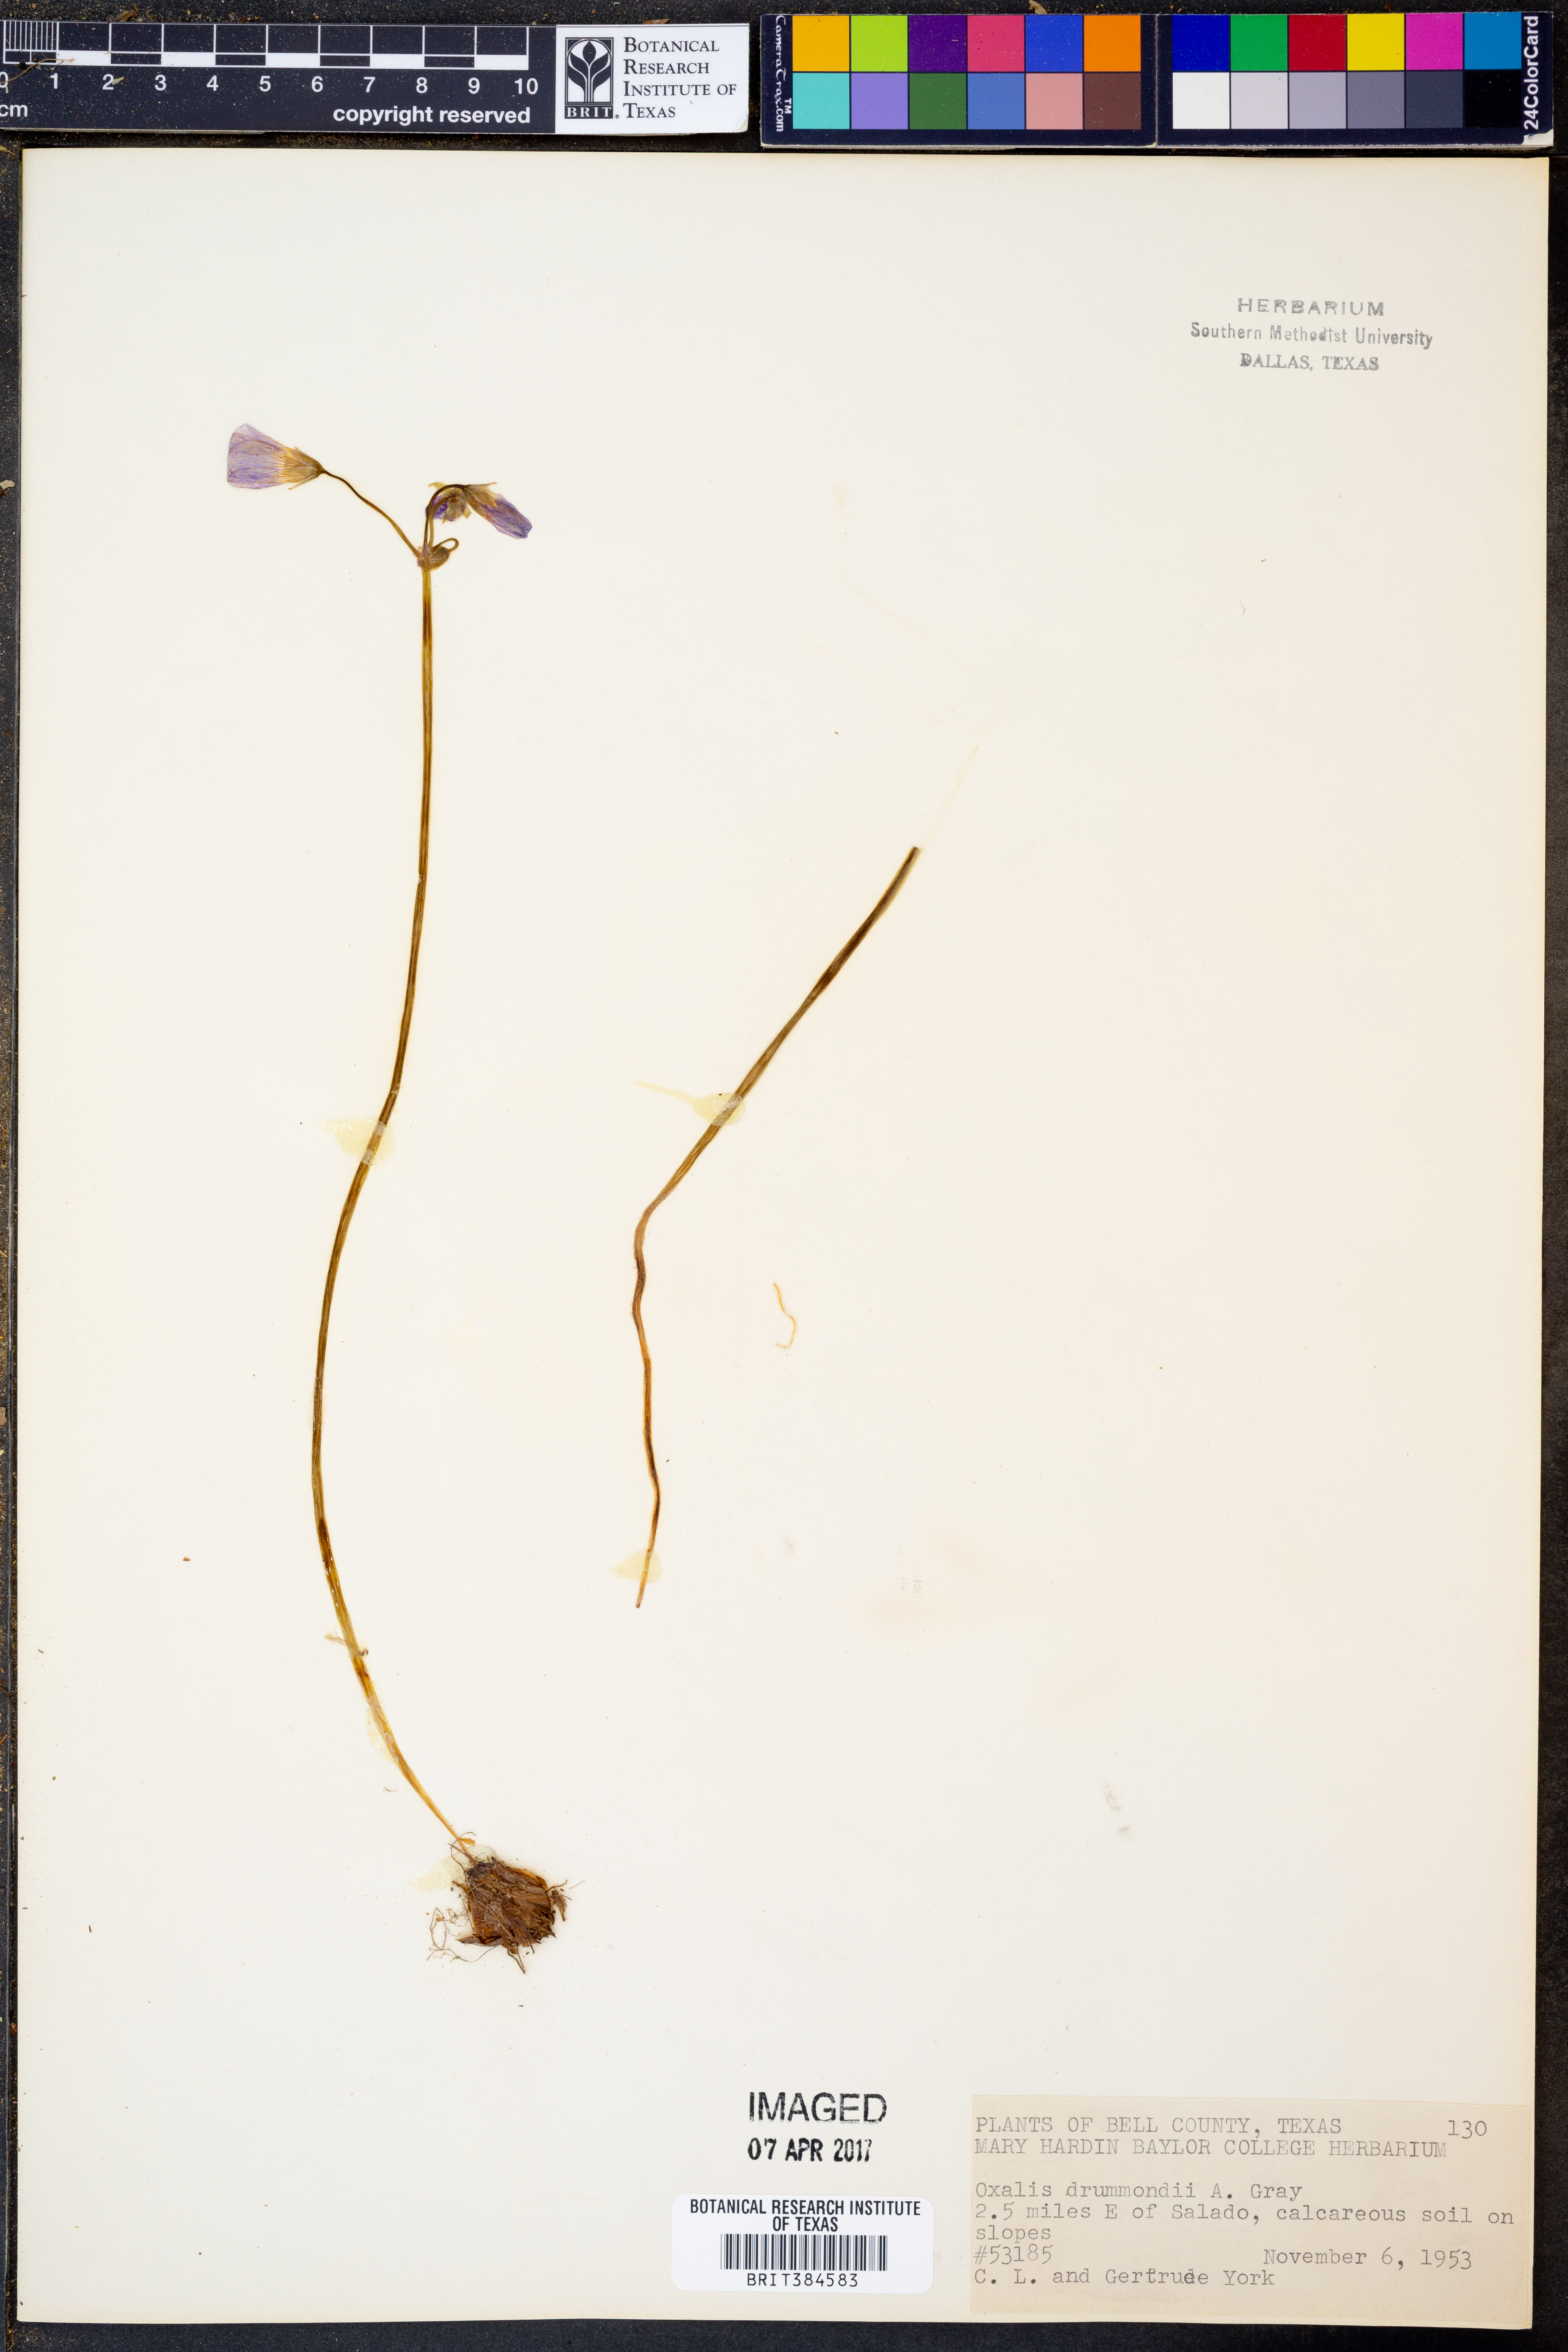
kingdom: Plantae
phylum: Tracheophyta
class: Magnoliopsida
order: Oxalidales
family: Oxalidaceae
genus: Oxalis
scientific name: Oxalis drummondii
